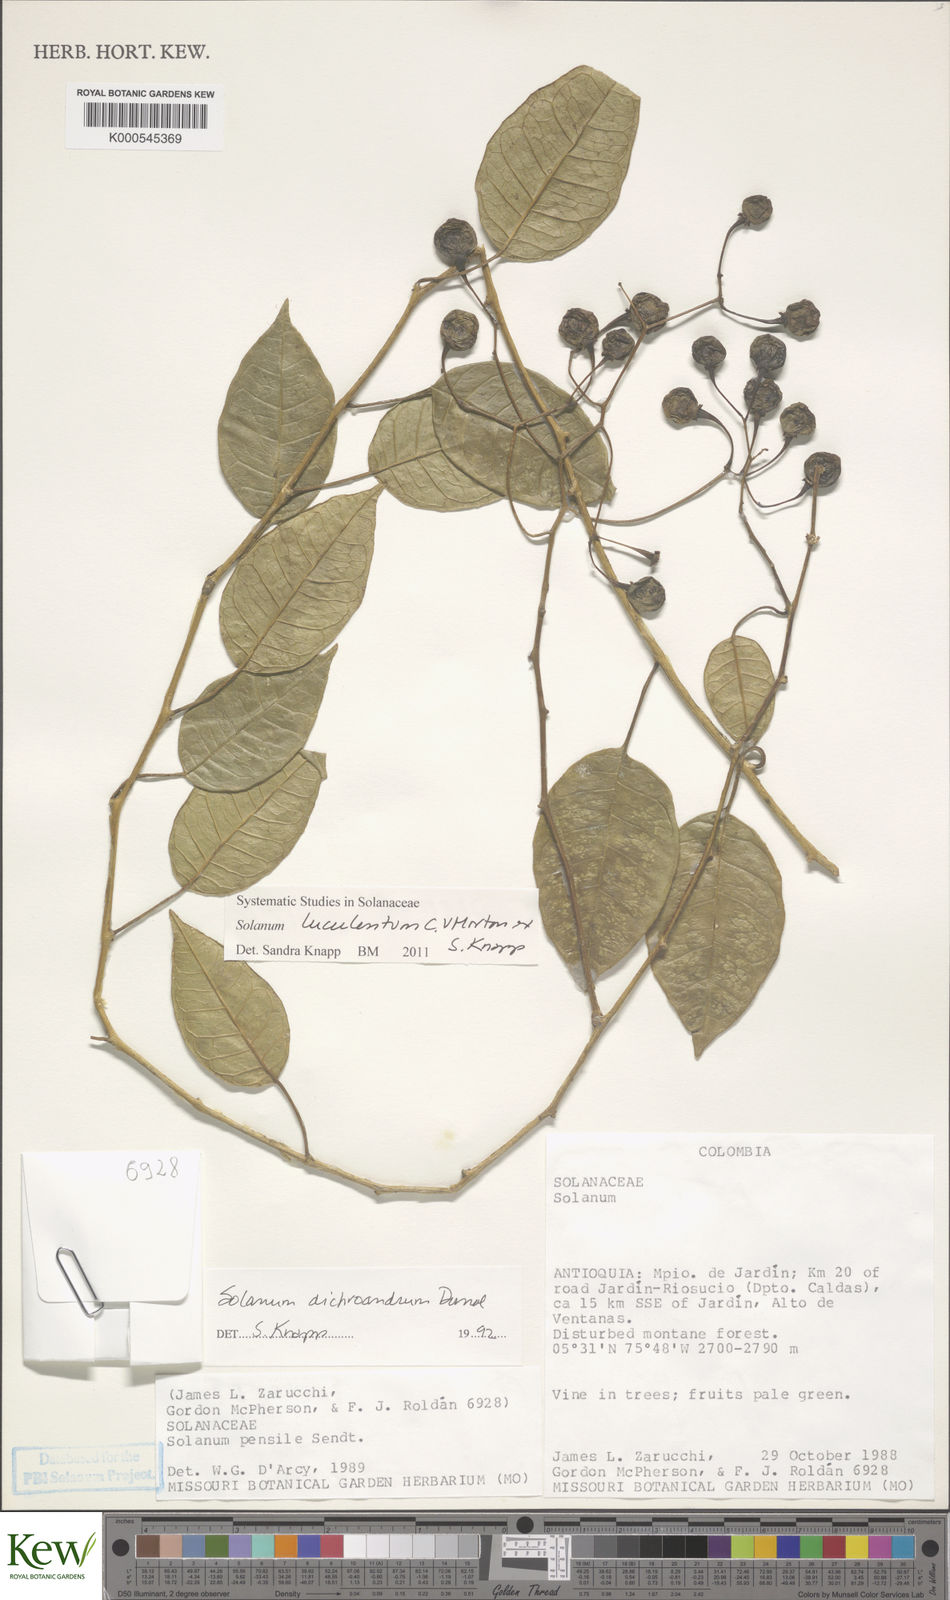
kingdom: Plantae
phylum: Tracheophyta
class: Magnoliopsida
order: Solanales
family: Solanaceae
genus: Solanum
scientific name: Solanum luculentum
